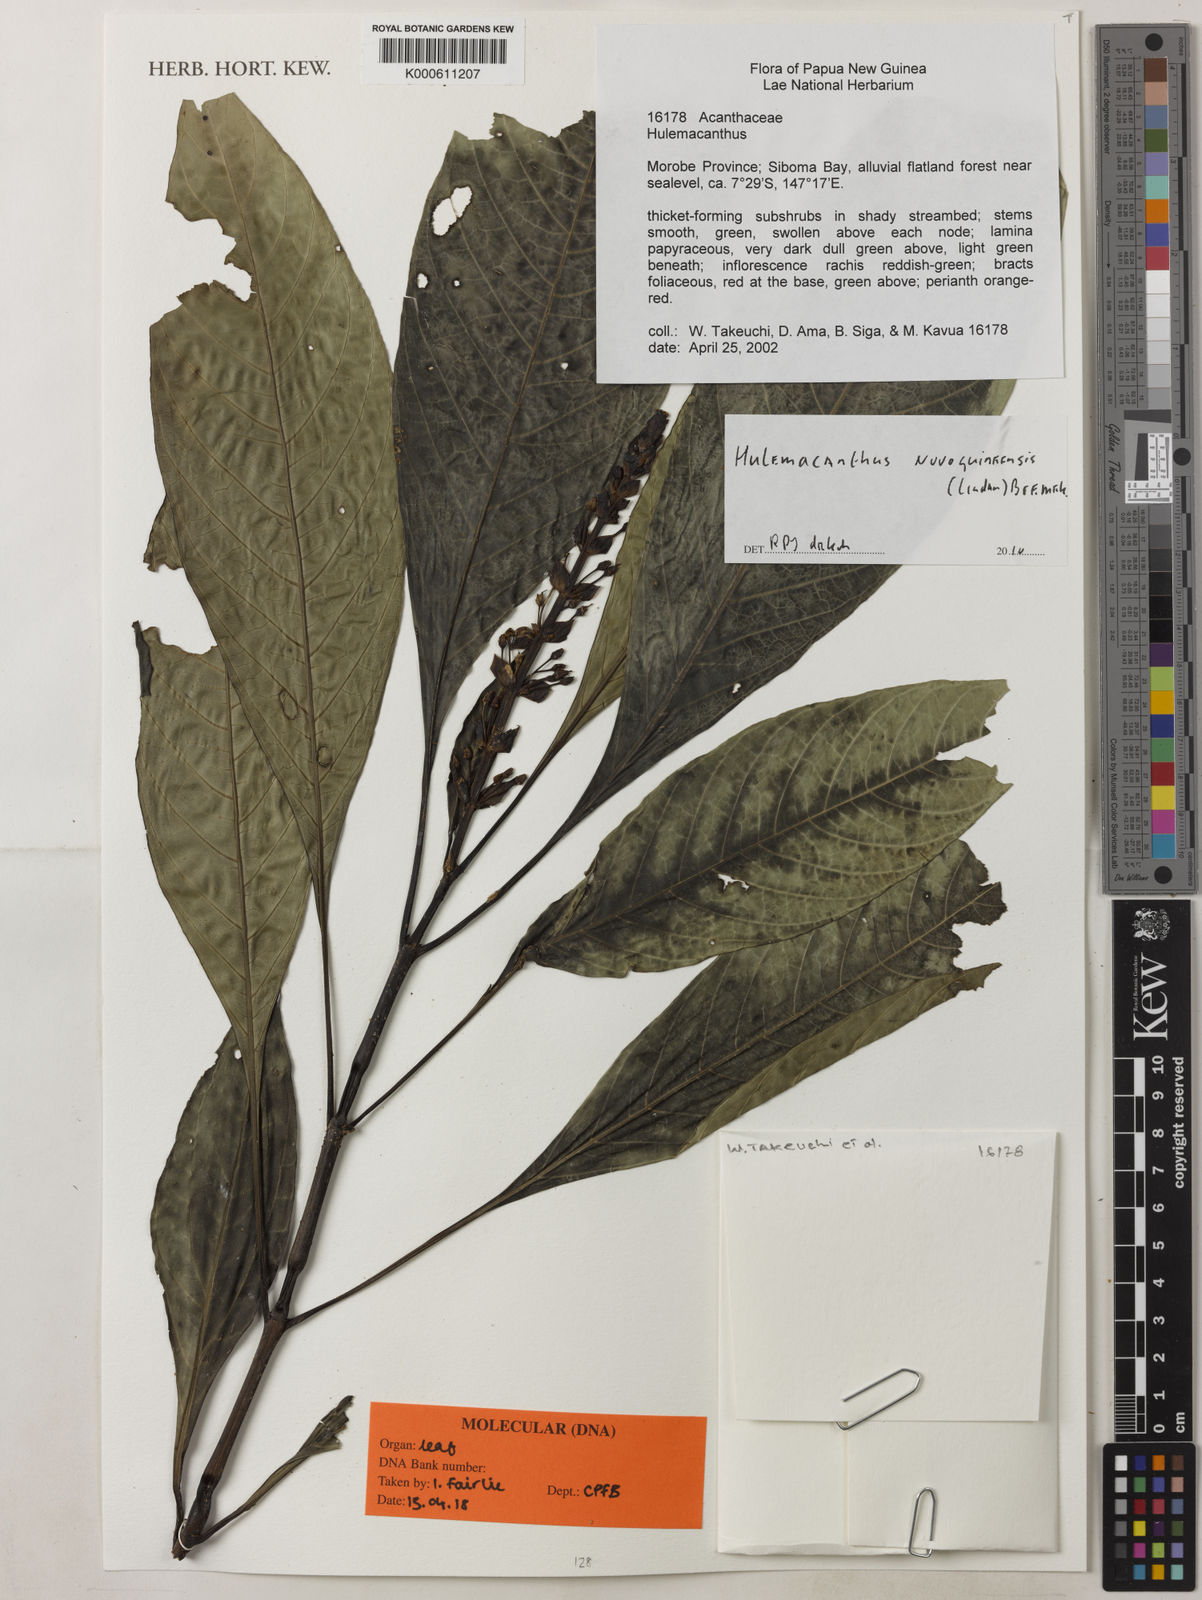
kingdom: Plantae
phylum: Tracheophyta
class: Magnoliopsida
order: Lamiales
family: Acanthaceae
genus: Hulemacanthus
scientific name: Hulemacanthus novoguineensis
